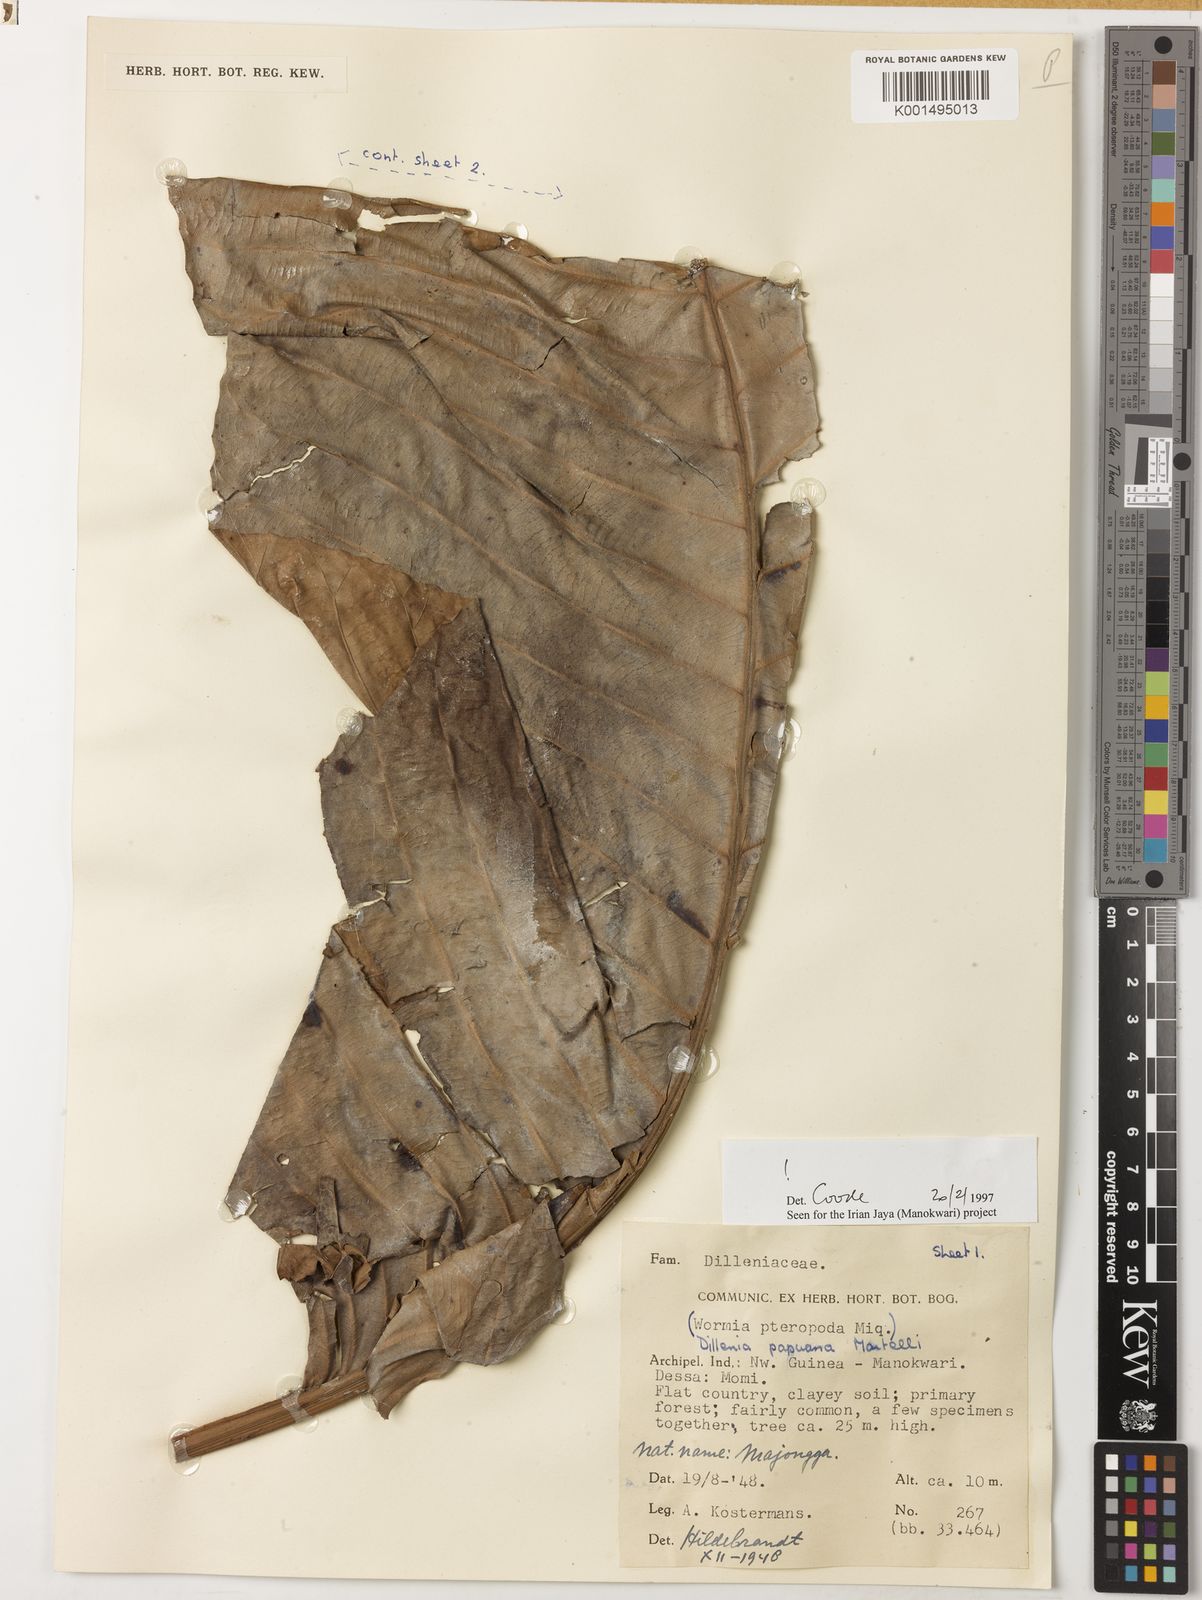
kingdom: Plantae
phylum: Tracheophyta
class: Magnoliopsida
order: Dilleniales
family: Dilleniaceae
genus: Dillenia
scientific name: Dillenia papuana
